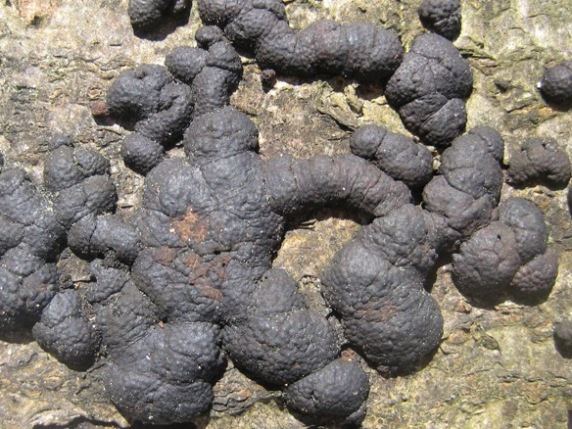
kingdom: Fungi
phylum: Ascomycota
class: Sordariomycetes
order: Xylariales
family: Hypoxylaceae
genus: Jackrogersella
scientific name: Jackrogersella cohaerens
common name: sammenflydende kulbær
